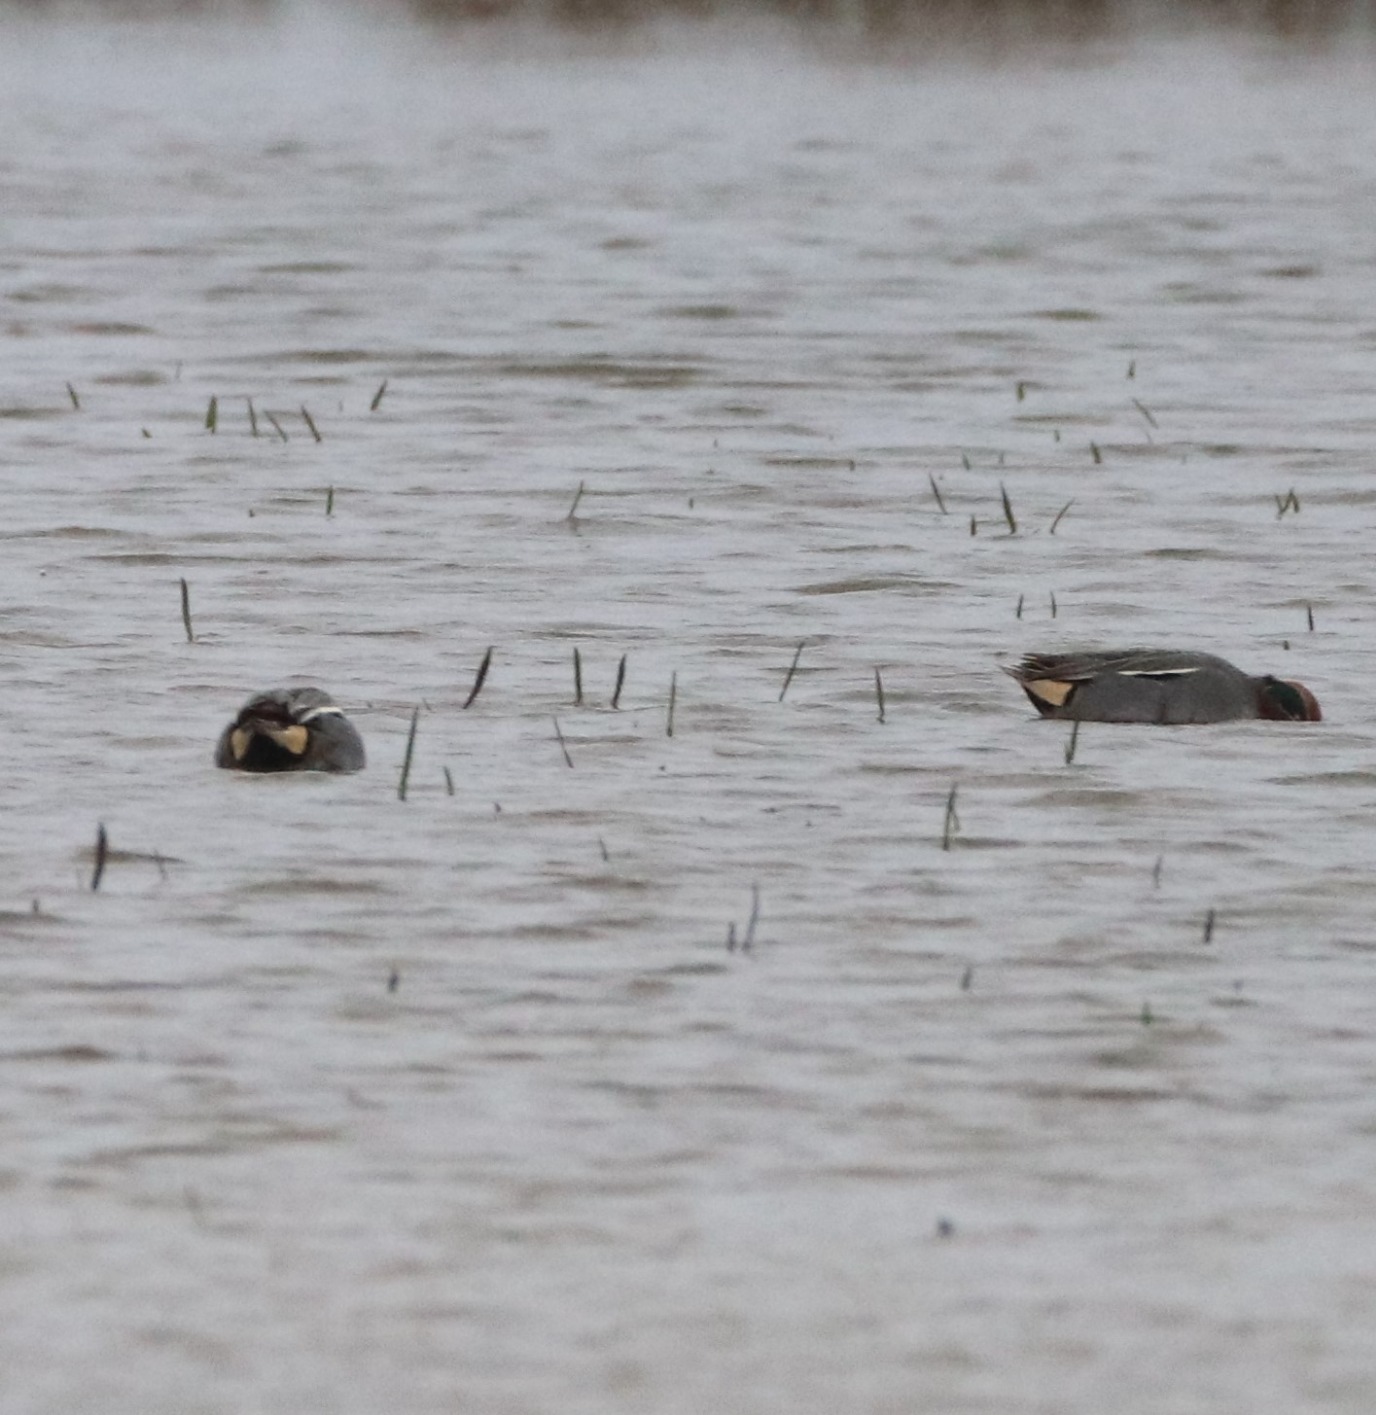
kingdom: Animalia
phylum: Chordata
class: Aves
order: Anseriformes
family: Anatidae
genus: Anas
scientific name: Anas crecca
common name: Krikand
